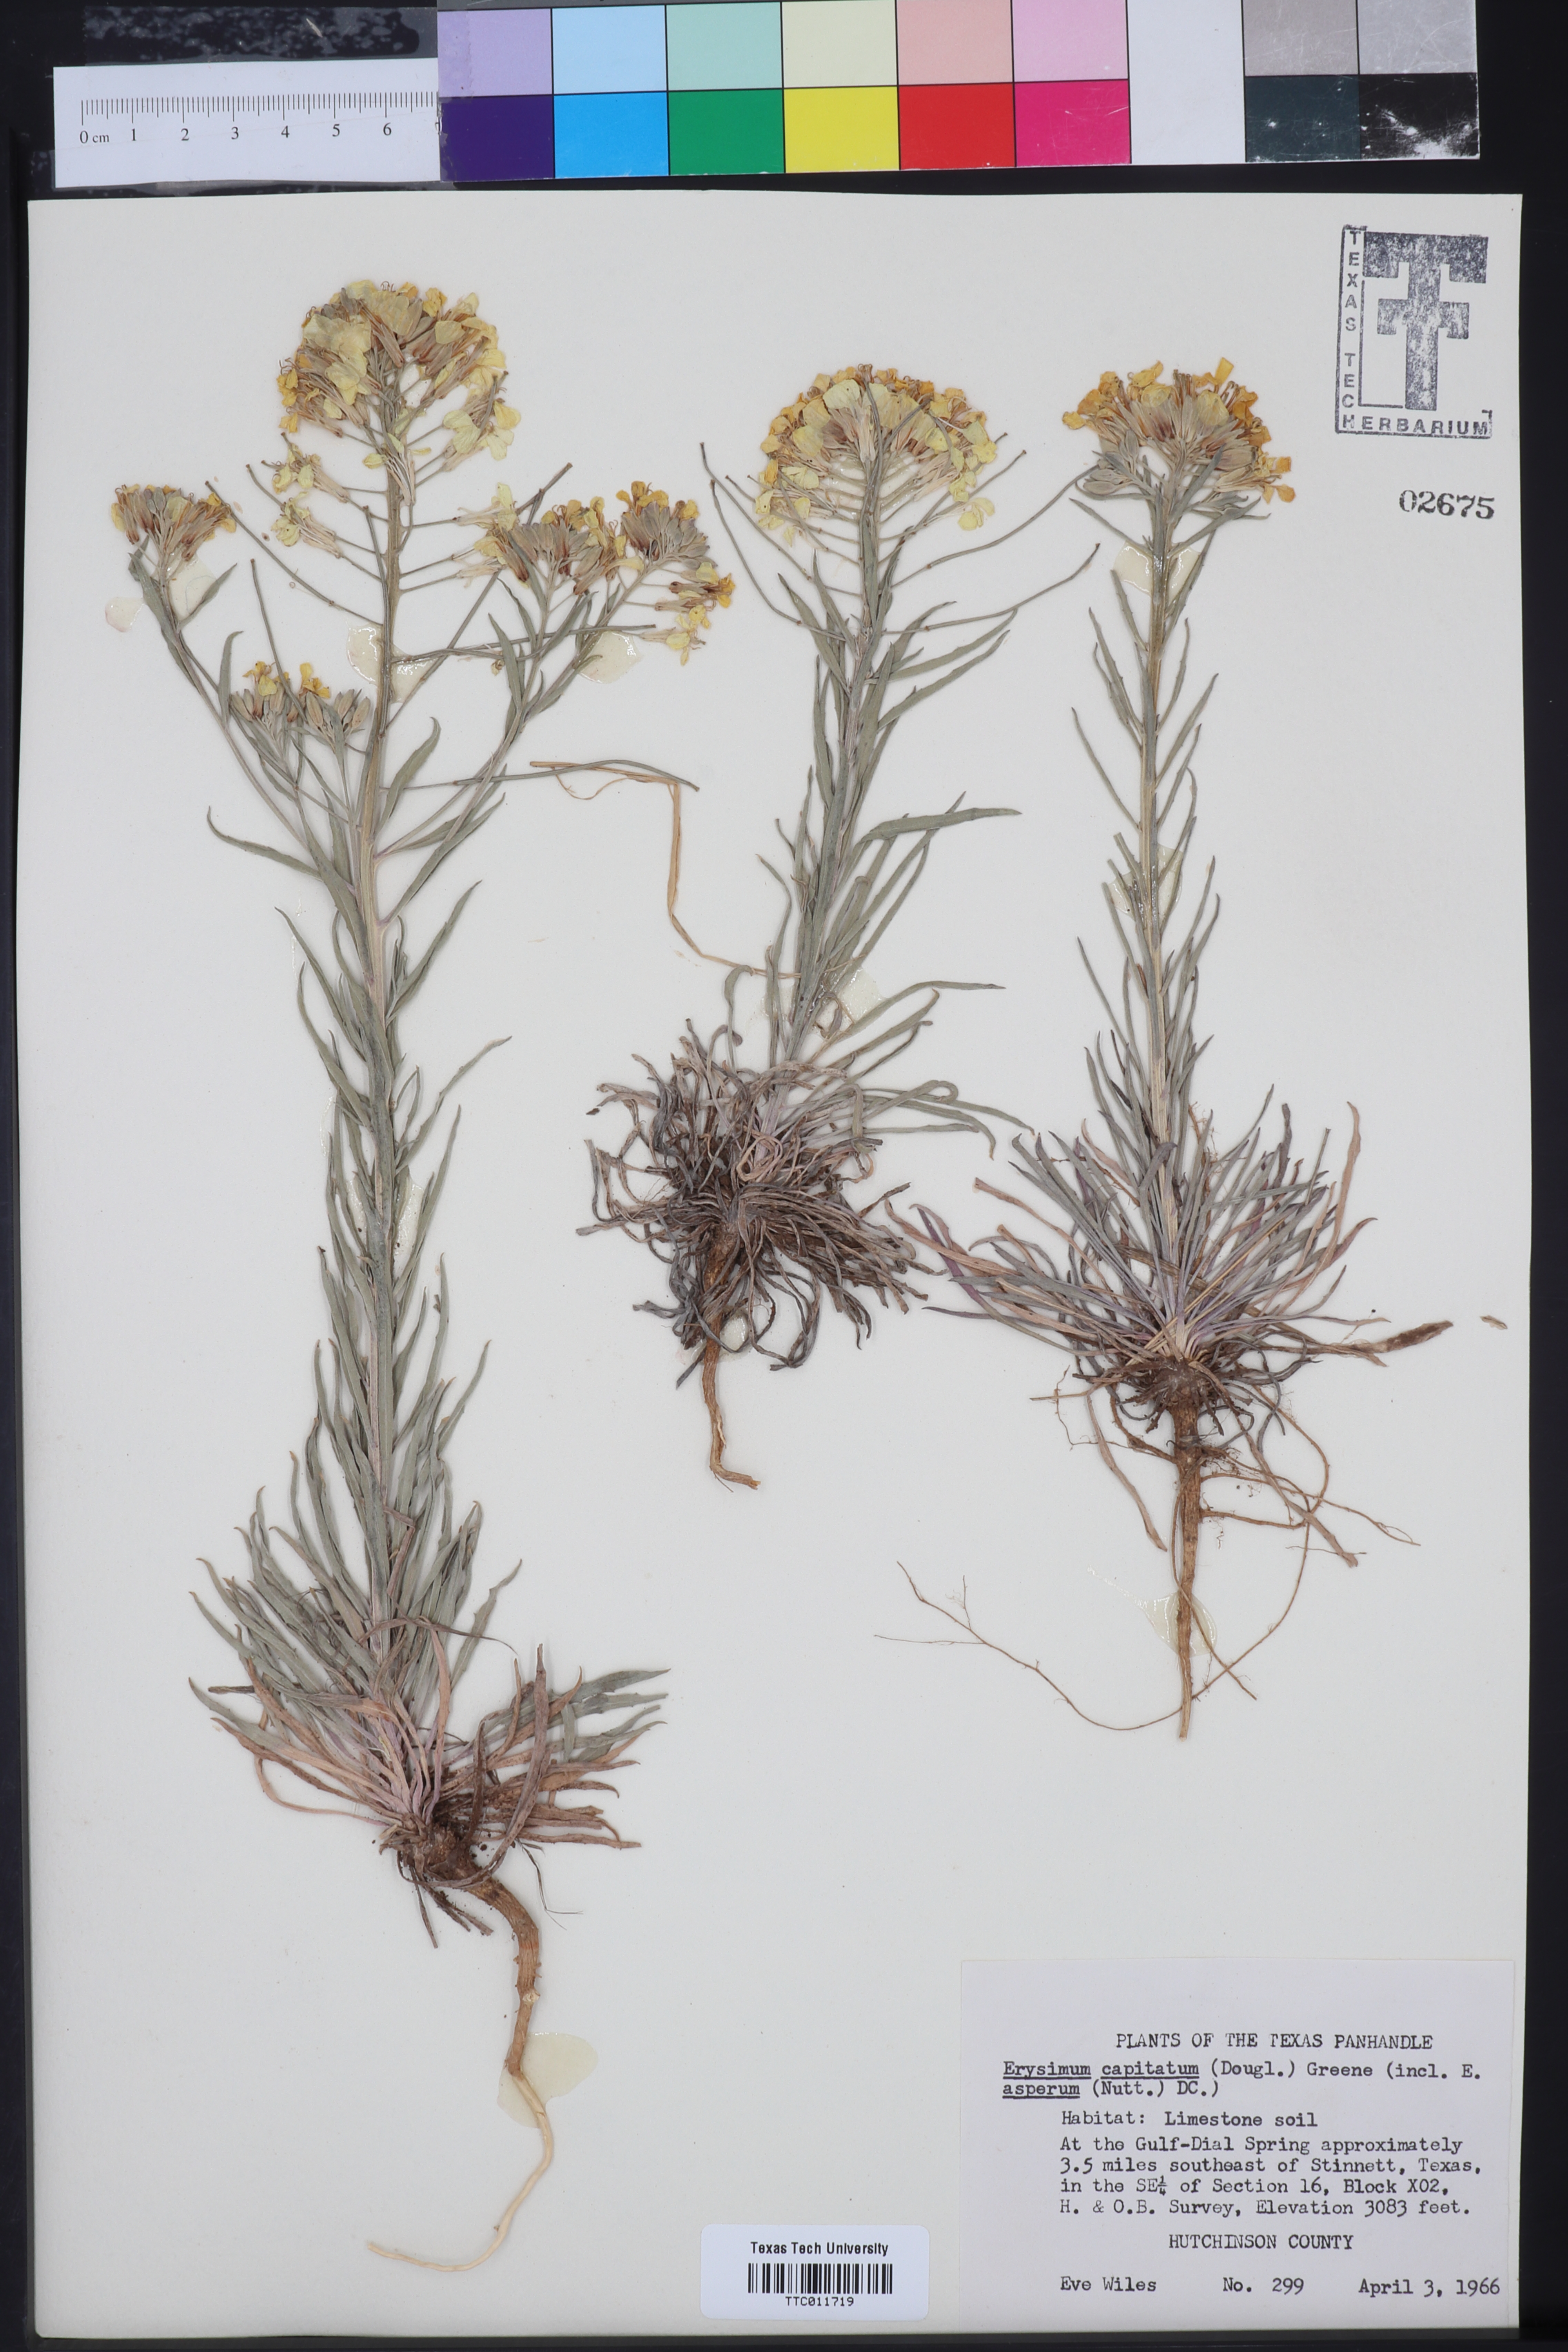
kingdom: Plantae
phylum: Tracheophyta
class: Magnoliopsida
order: Brassicales
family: Brassicaceae
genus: Erysimum
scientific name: Erysimum capitatum
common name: Western wallflower
